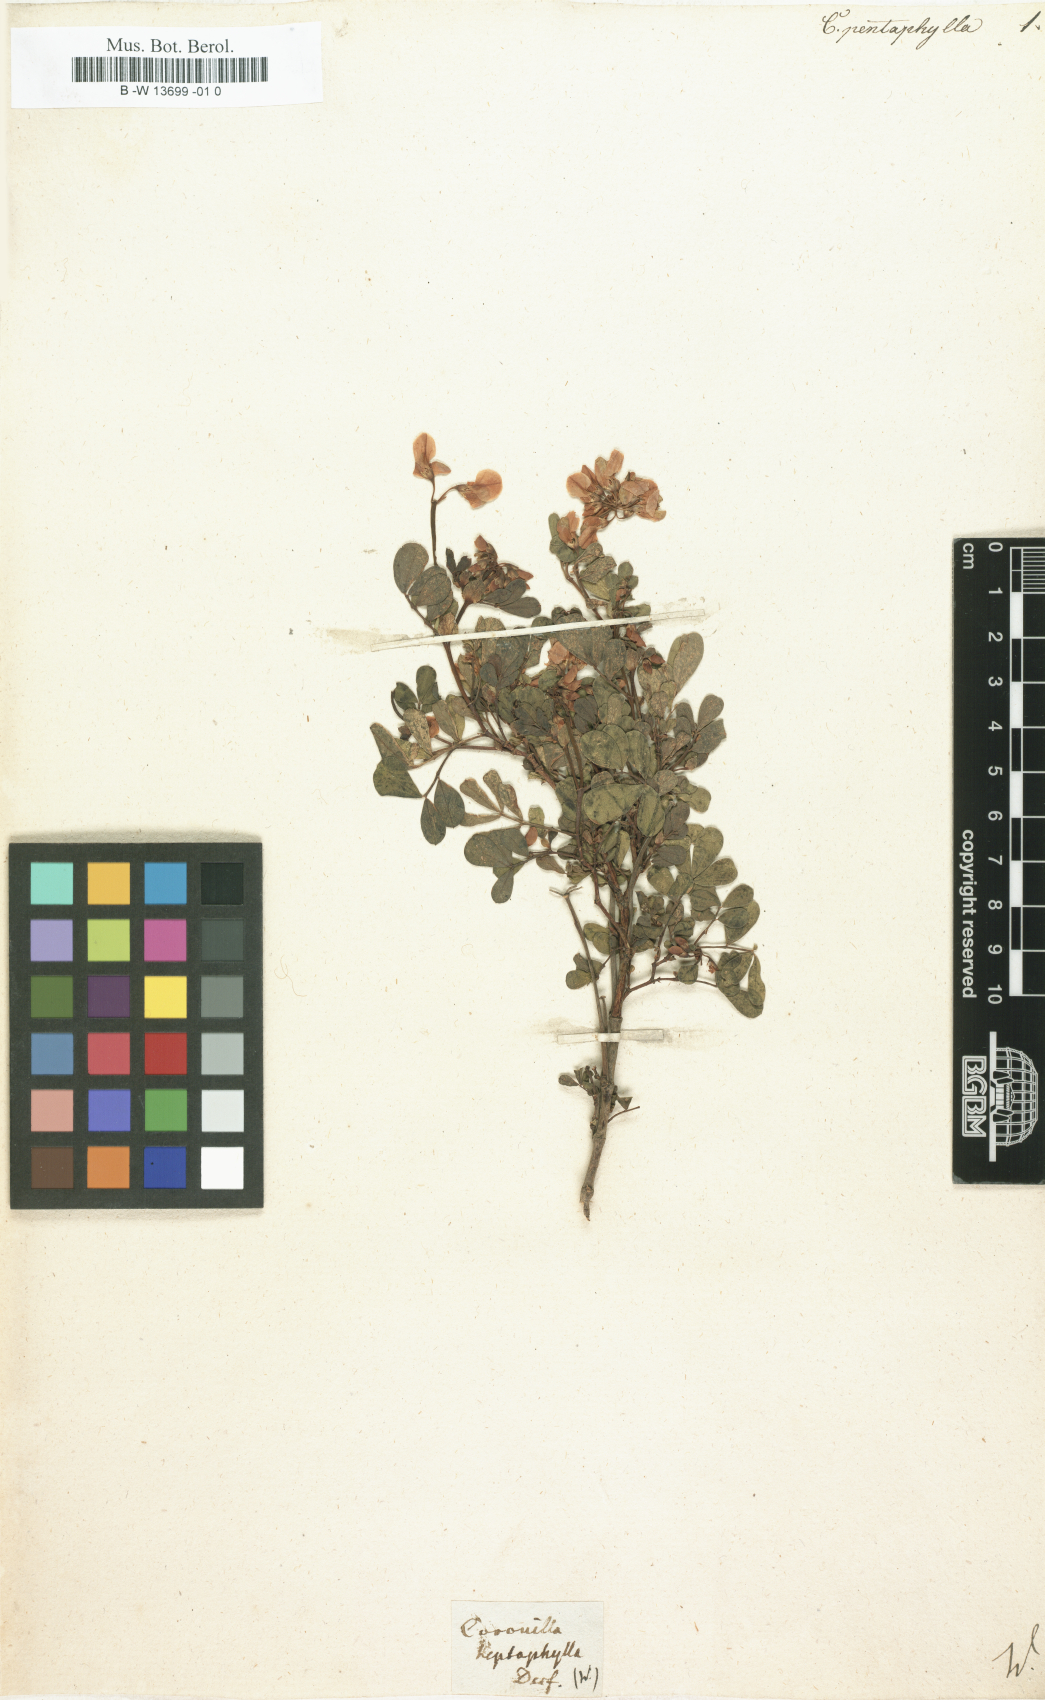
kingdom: Plantae
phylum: Tracheophyta
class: Magnoliopsida
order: Fabales
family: Fabaceae
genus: Coronilla
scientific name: Coronilla valentina
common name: Shrubby scorpion-vetch
